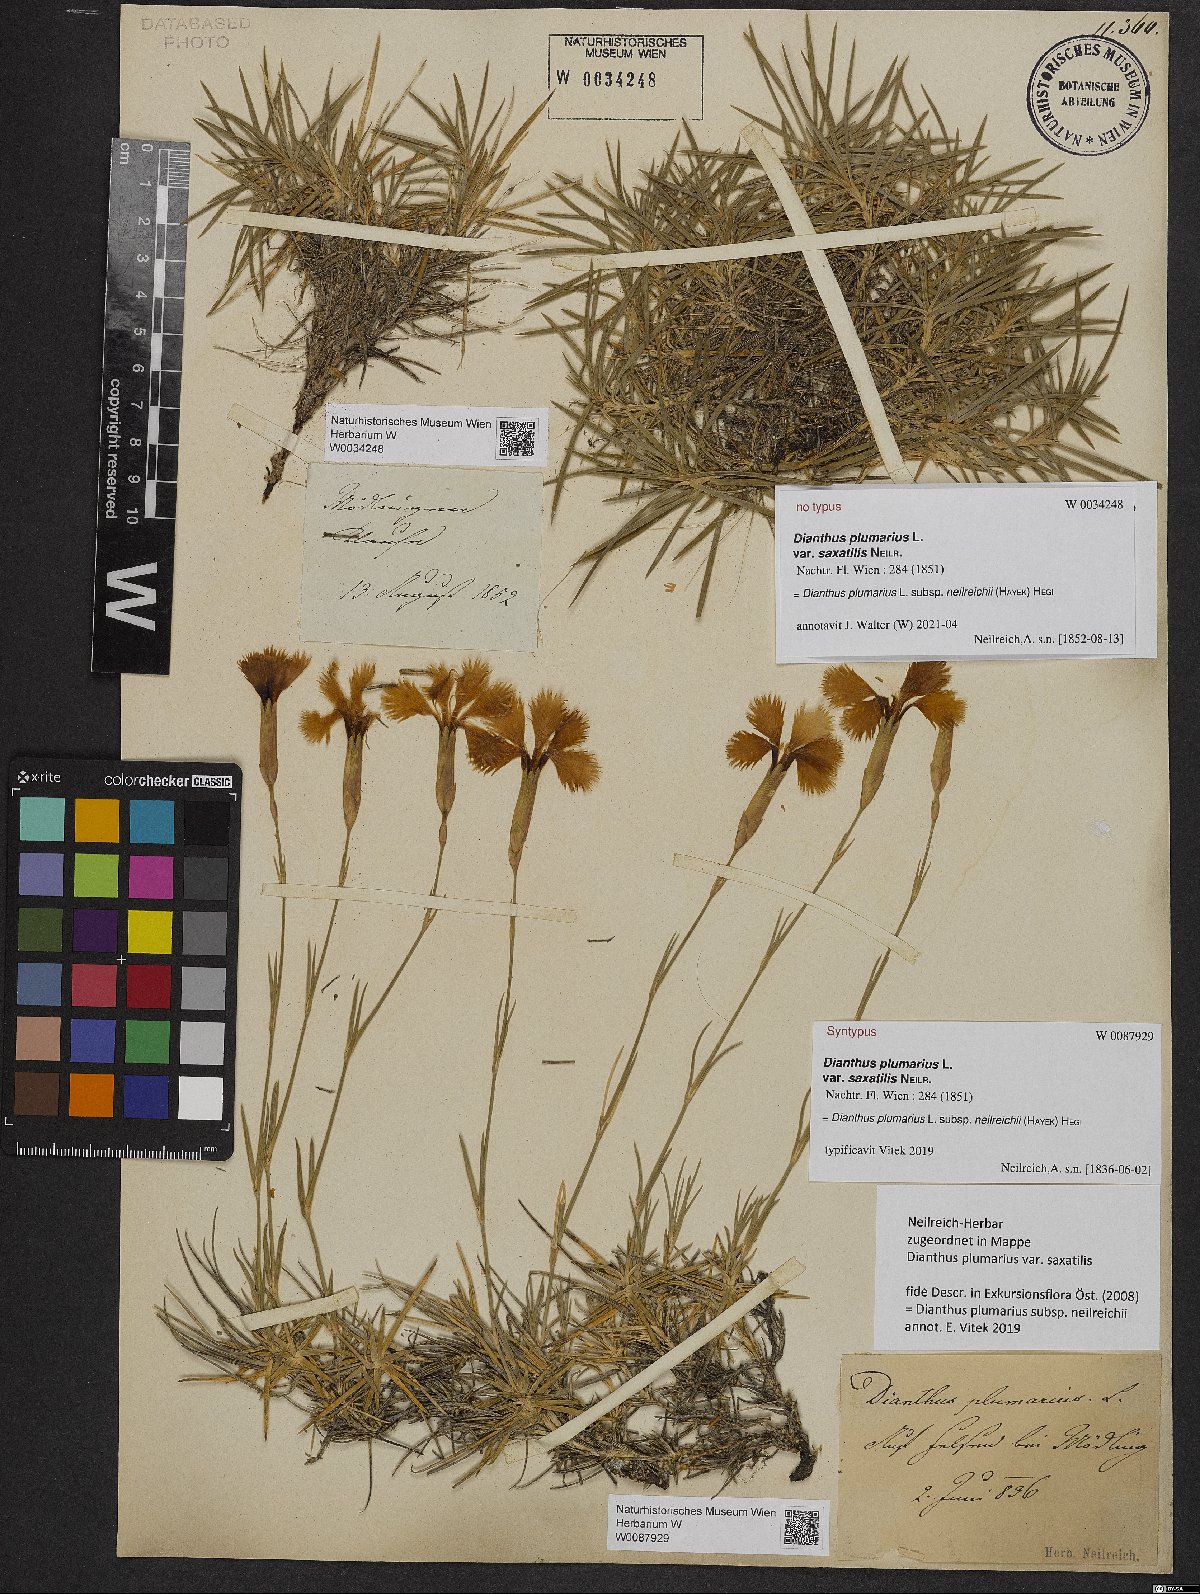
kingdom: Plantae
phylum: Tracheophyta
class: Magnoliopsida
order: Caryophyllales
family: Caryophyllaceae
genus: Dianthus
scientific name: Dianthus plumarius
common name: Pink
